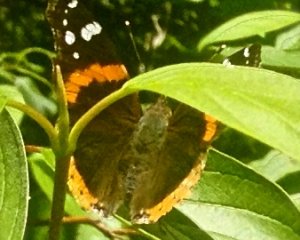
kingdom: Animalia
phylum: Arthropoda
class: Insecta
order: Lepidoptera
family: Nymphalidae
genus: Vanessa
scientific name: Vanessa atalanta
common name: Red Admiral
